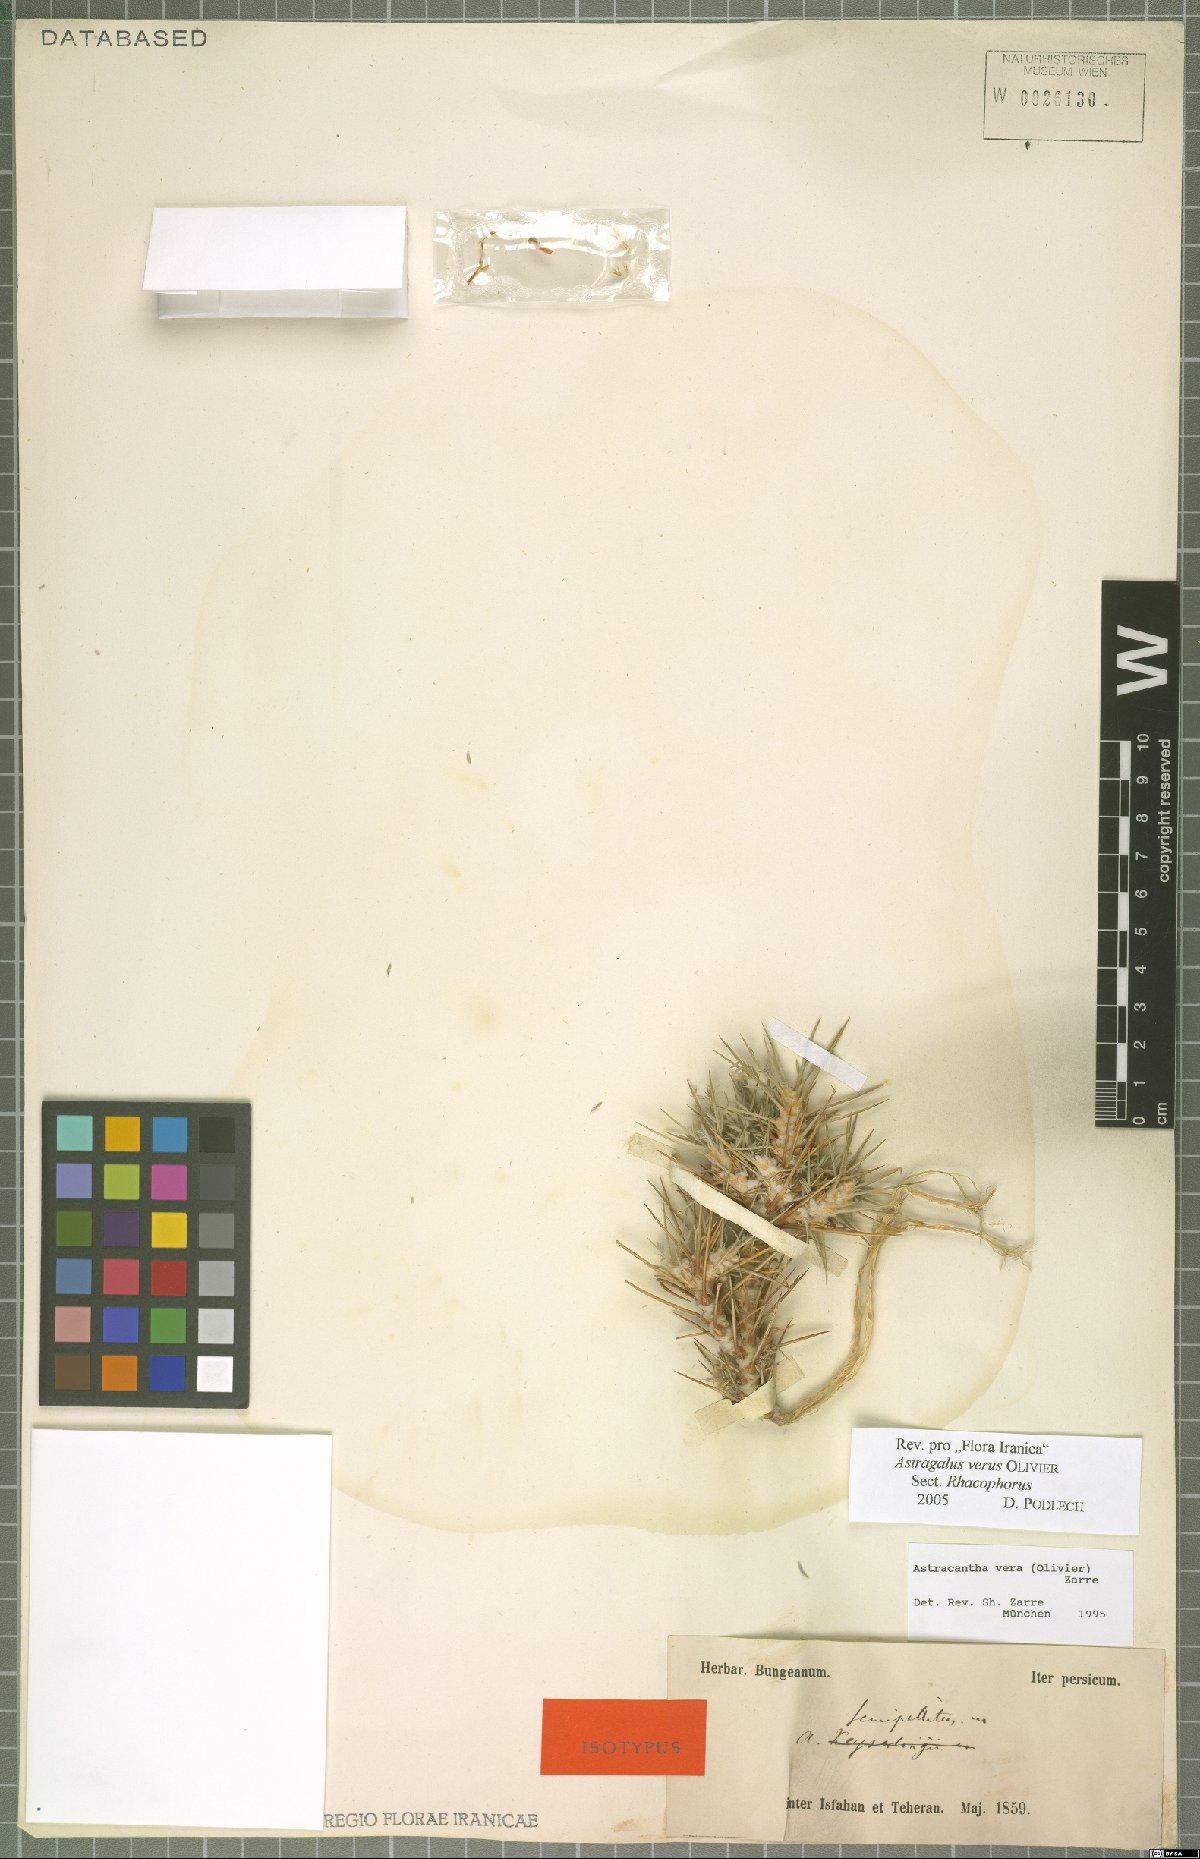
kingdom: Plantae
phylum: Tracheophyta
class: Magnoliopsida
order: Fabales
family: Fabaceae
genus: Astragalus
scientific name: Astragalus verus
